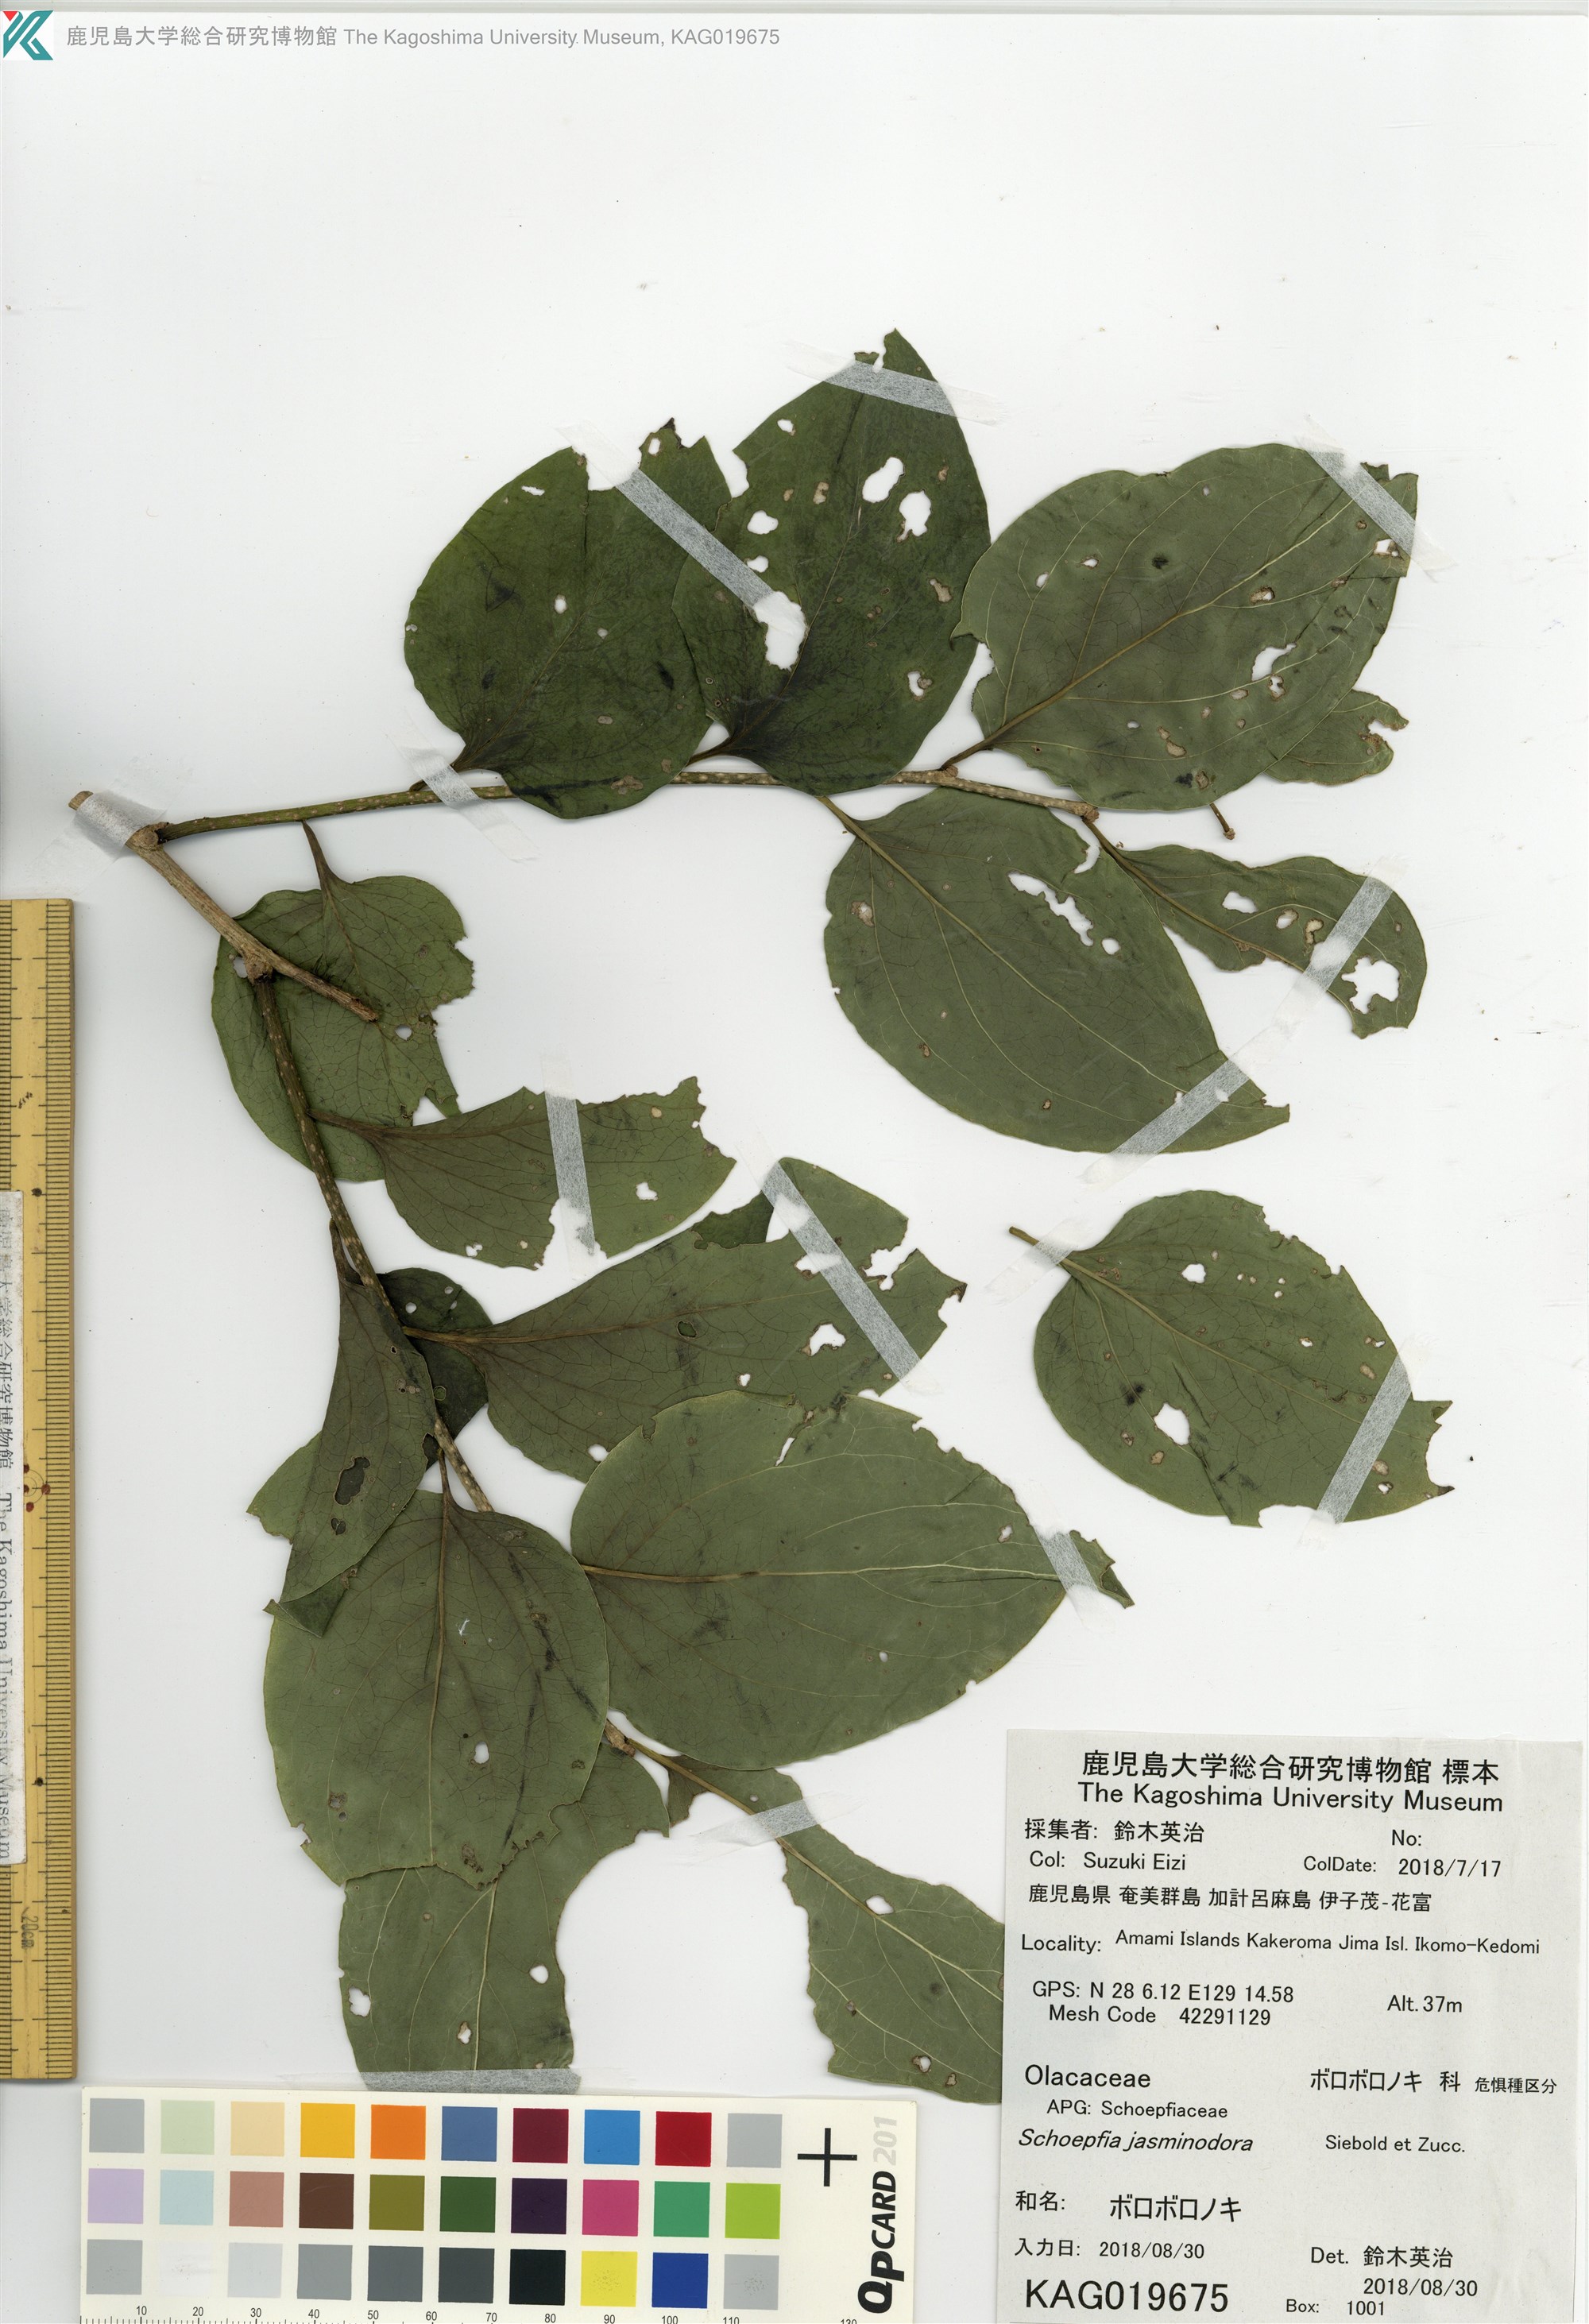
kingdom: Plantae
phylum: Tracheophyta
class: Magnoliopsida
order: Santalales
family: Schoepfiaceae
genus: Schoepfia
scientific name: Schoepfia jasminodora
